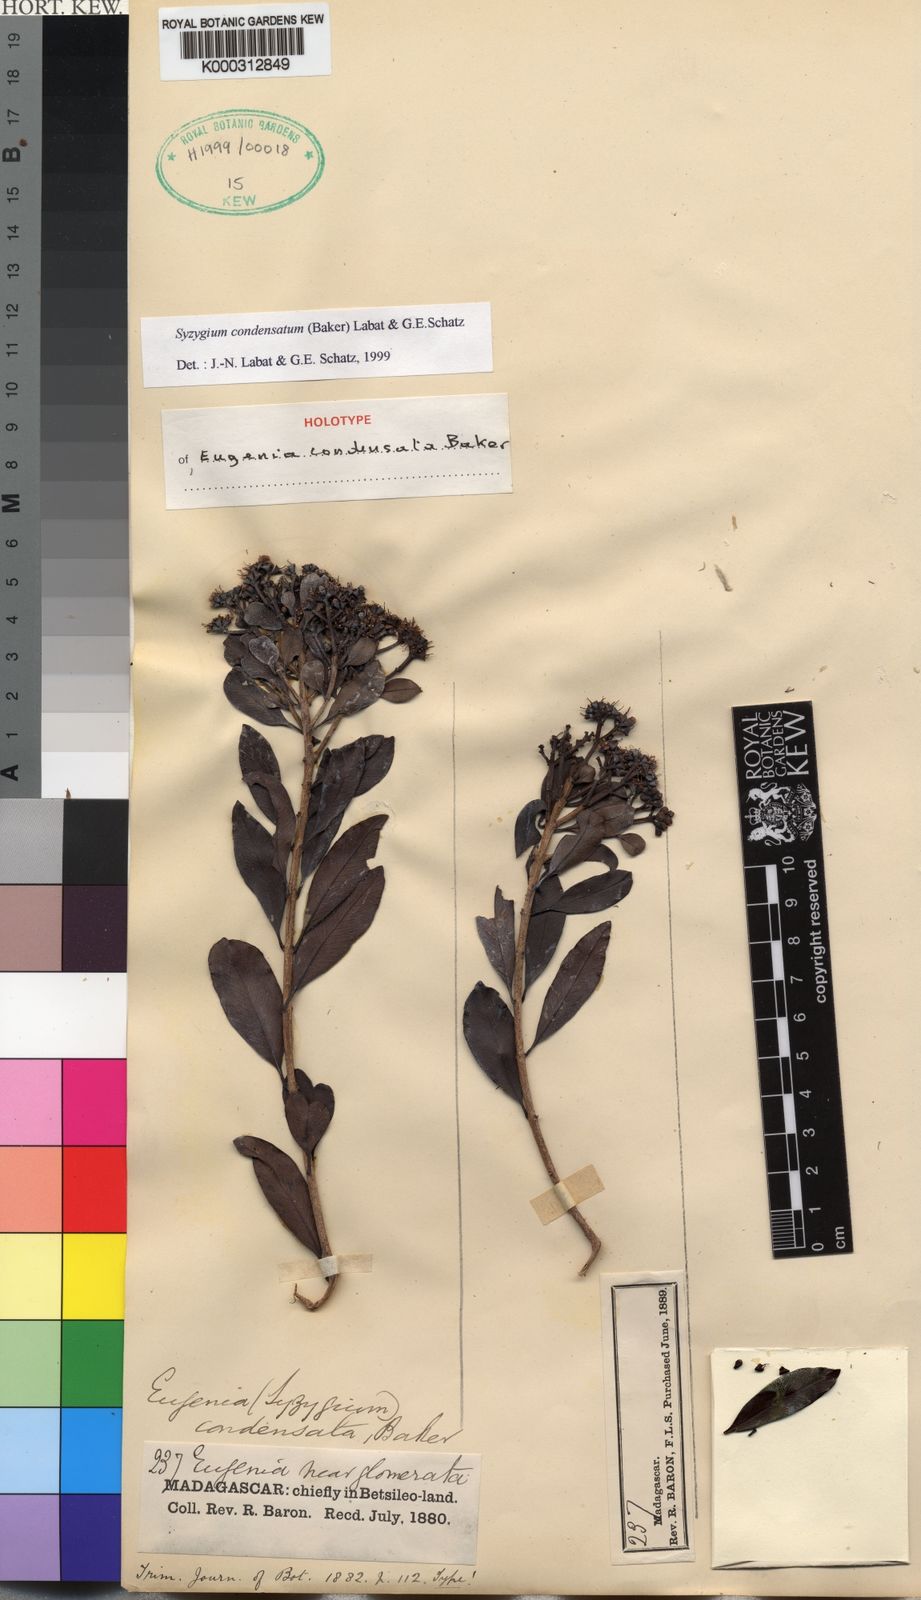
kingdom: Plantae
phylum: Tracheophyta
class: Magnoliopsida
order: Myrtales
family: Myrtaceae
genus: Syzygium
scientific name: Syzygium condensatum
